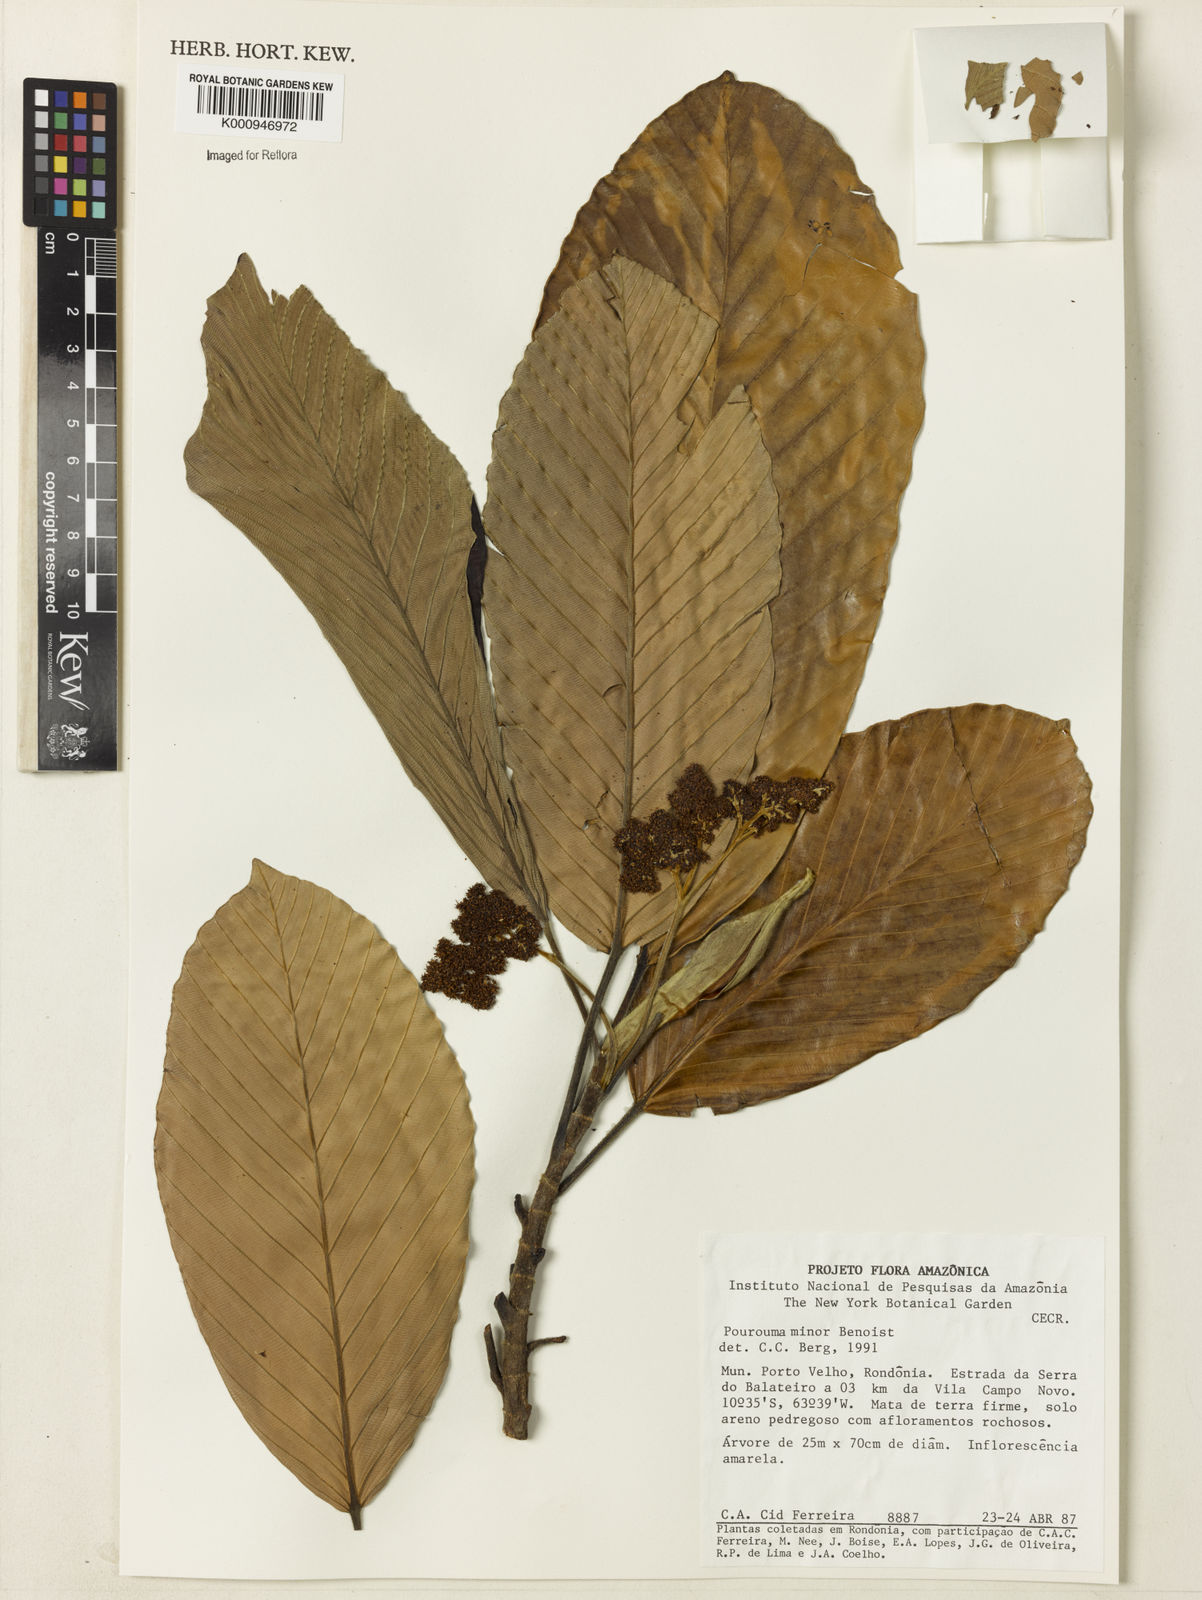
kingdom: Plantae
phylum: Tracheophyta
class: Magnoliopsida
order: Rosales
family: Urticaceae
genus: Pourouma
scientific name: Pourouma minor
